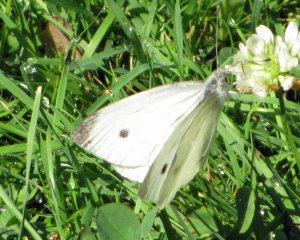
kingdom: Animalia
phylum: Arthropoda
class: Insecta
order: Lepidoptera
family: Pieridae
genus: Pieris
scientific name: Pieris rapae
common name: Cabbage White
